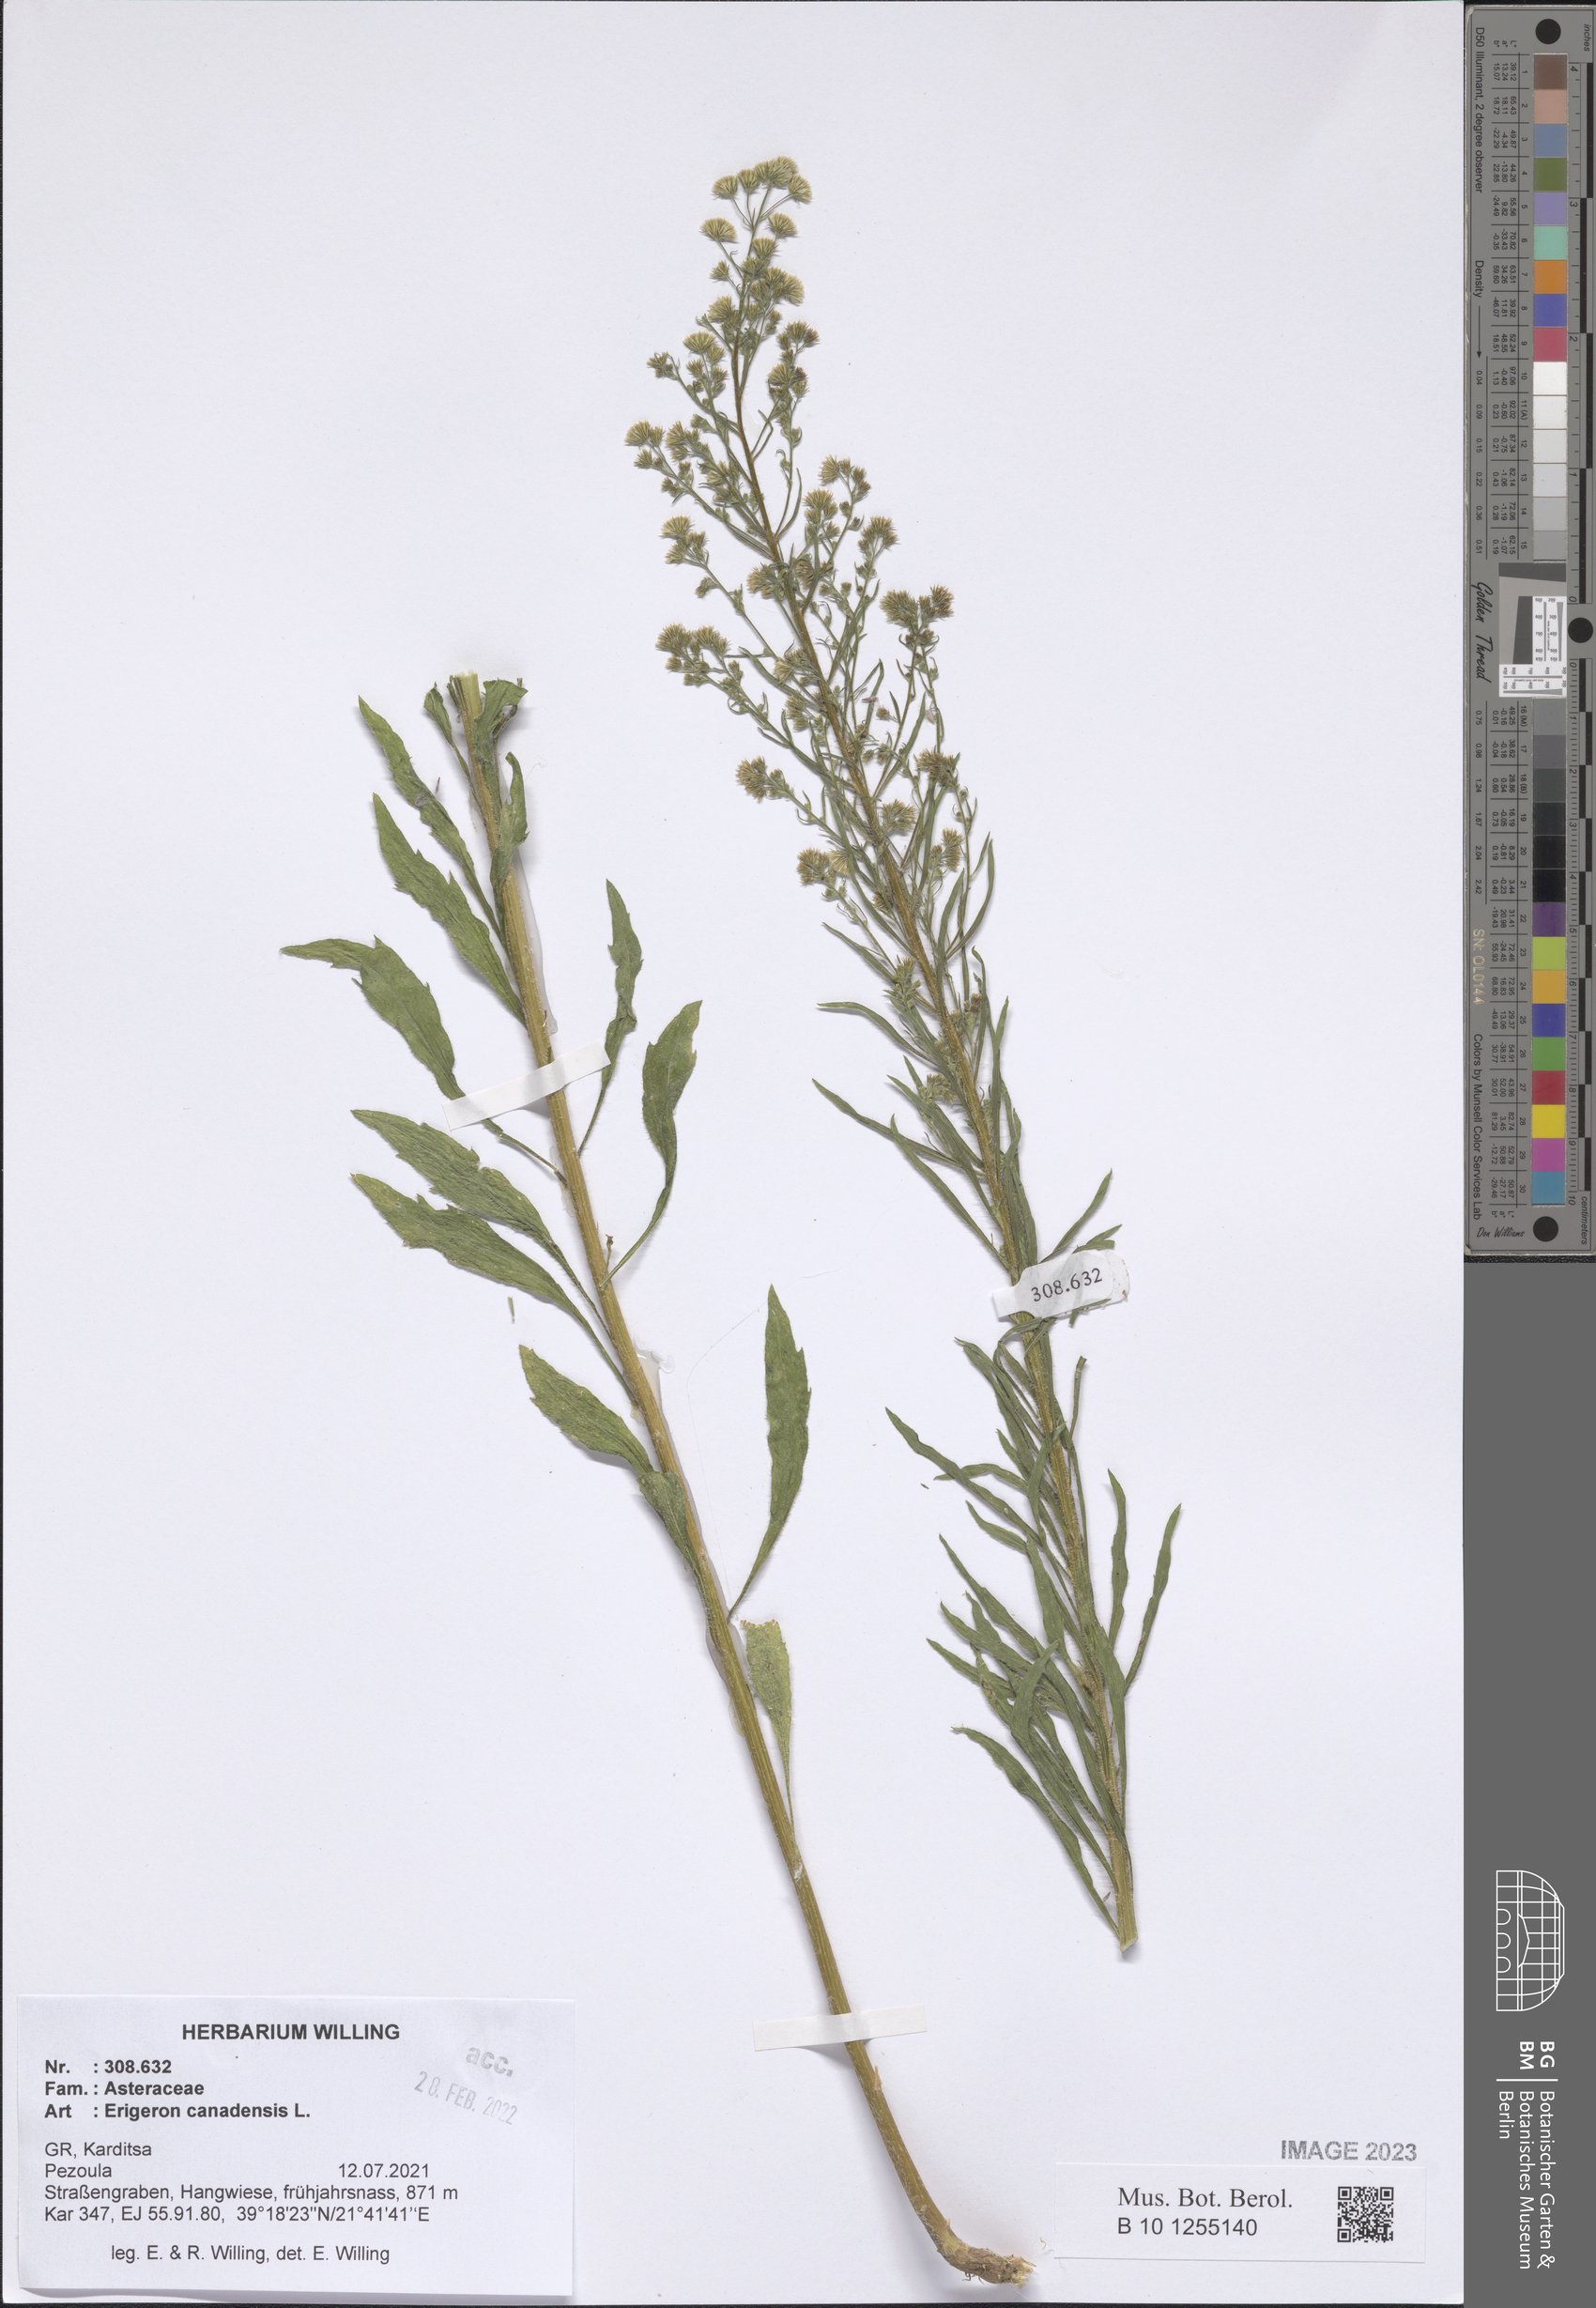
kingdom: Plantae
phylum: Tracheophyta
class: Magnoliopsida
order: Asterales
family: Asteraceae
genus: Erigeron
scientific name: Erigeron canadensis
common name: Canadian fleabane
